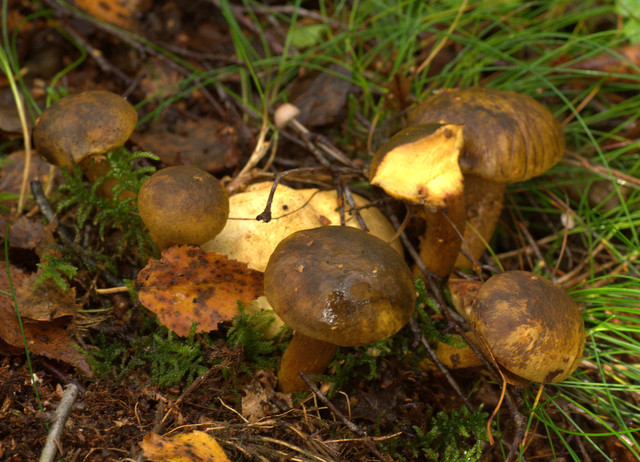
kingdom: Fungi
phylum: Basidiomycota
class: Agaricomycetes
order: Boletales
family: Boletaceae
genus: Pseudoboletus
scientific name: Pseudoboletus parasiticus
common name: snyltende rørhat
